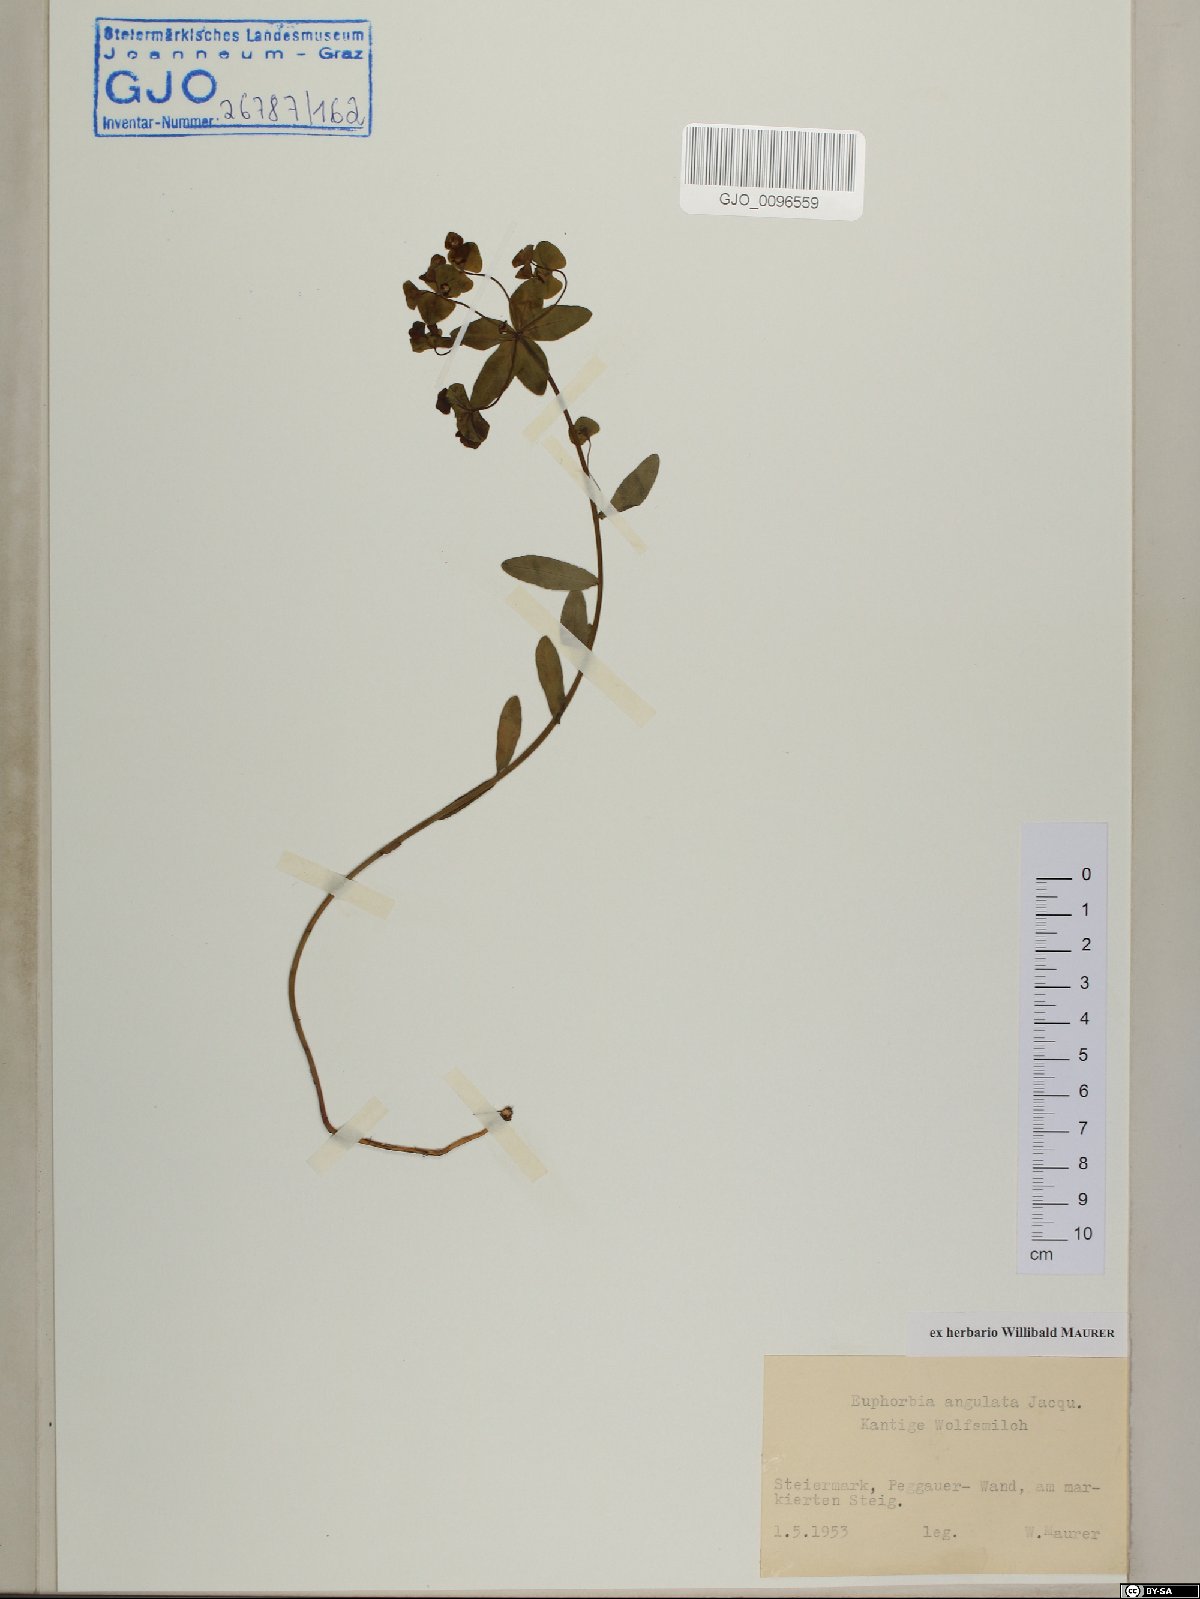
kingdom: Plantae
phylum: Tracheophyta
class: Magnoliopsida
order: Malpighiales
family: Euphorbiaceae
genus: Euphorbia
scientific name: Euphorbia angulata
